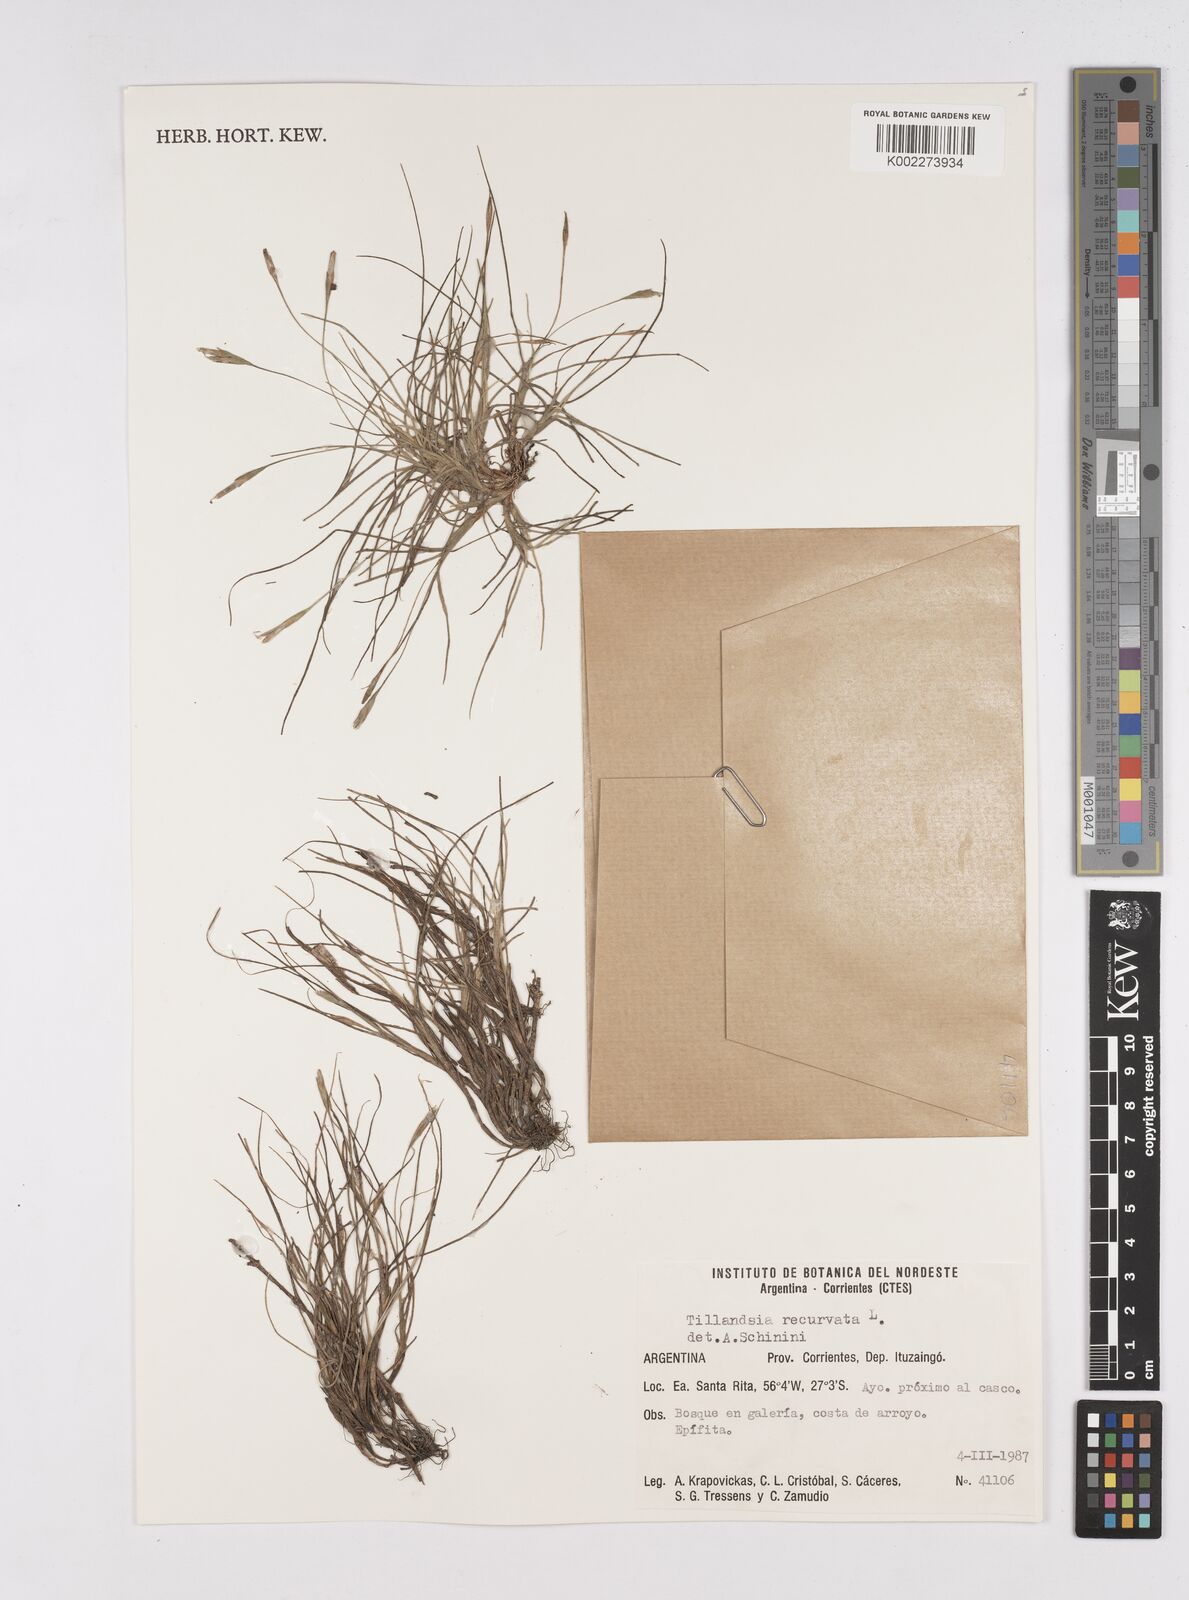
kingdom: Plantae
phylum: Tracheophyta
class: Liliopsida
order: Poales
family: Bromeliaceae
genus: Tillandsia
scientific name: Tillandsia recurvata
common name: Small ballmoss
